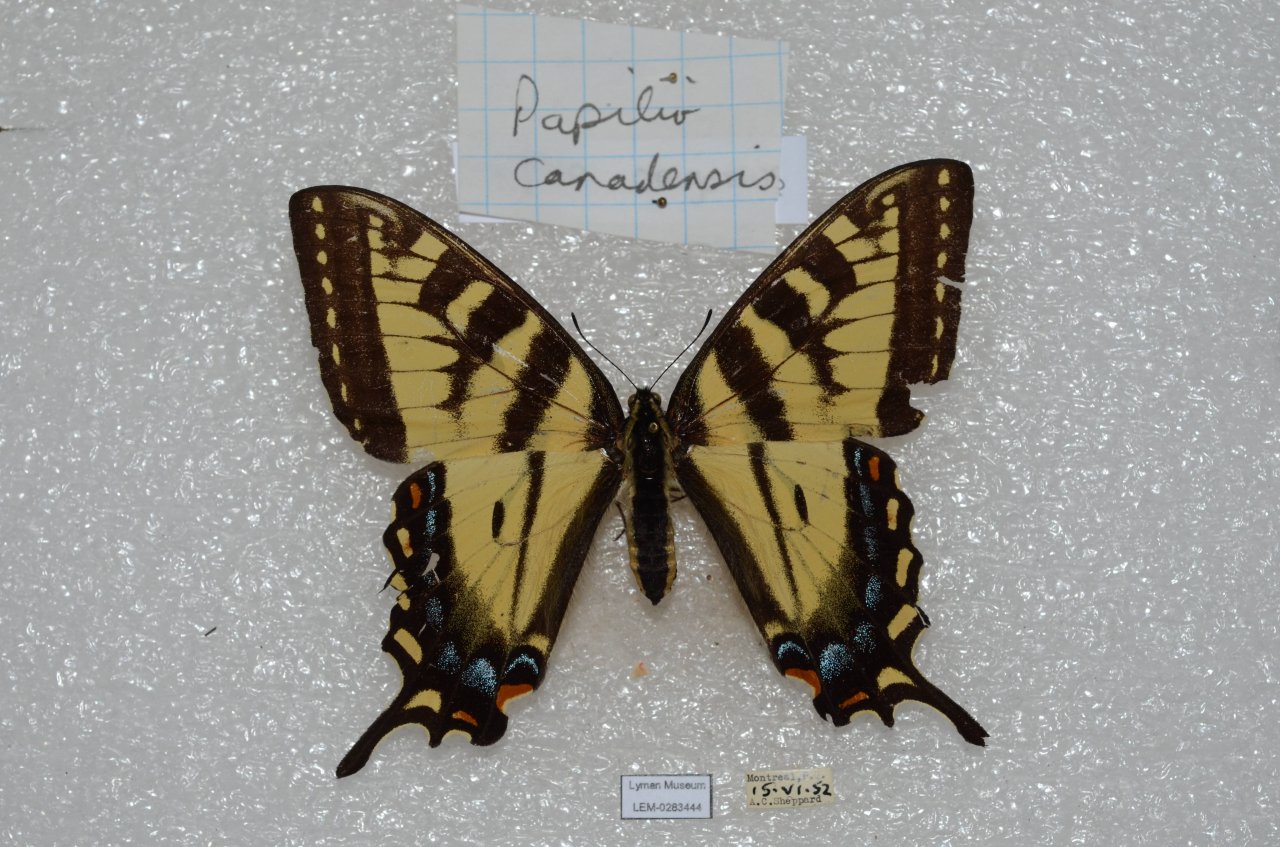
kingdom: Animalia
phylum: Arthropoda
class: Insecta
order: Lepidoptera
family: Papilionidae
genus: Pterourus
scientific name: Pterourus canadensis
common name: Canadian Tiger Swallowtail
